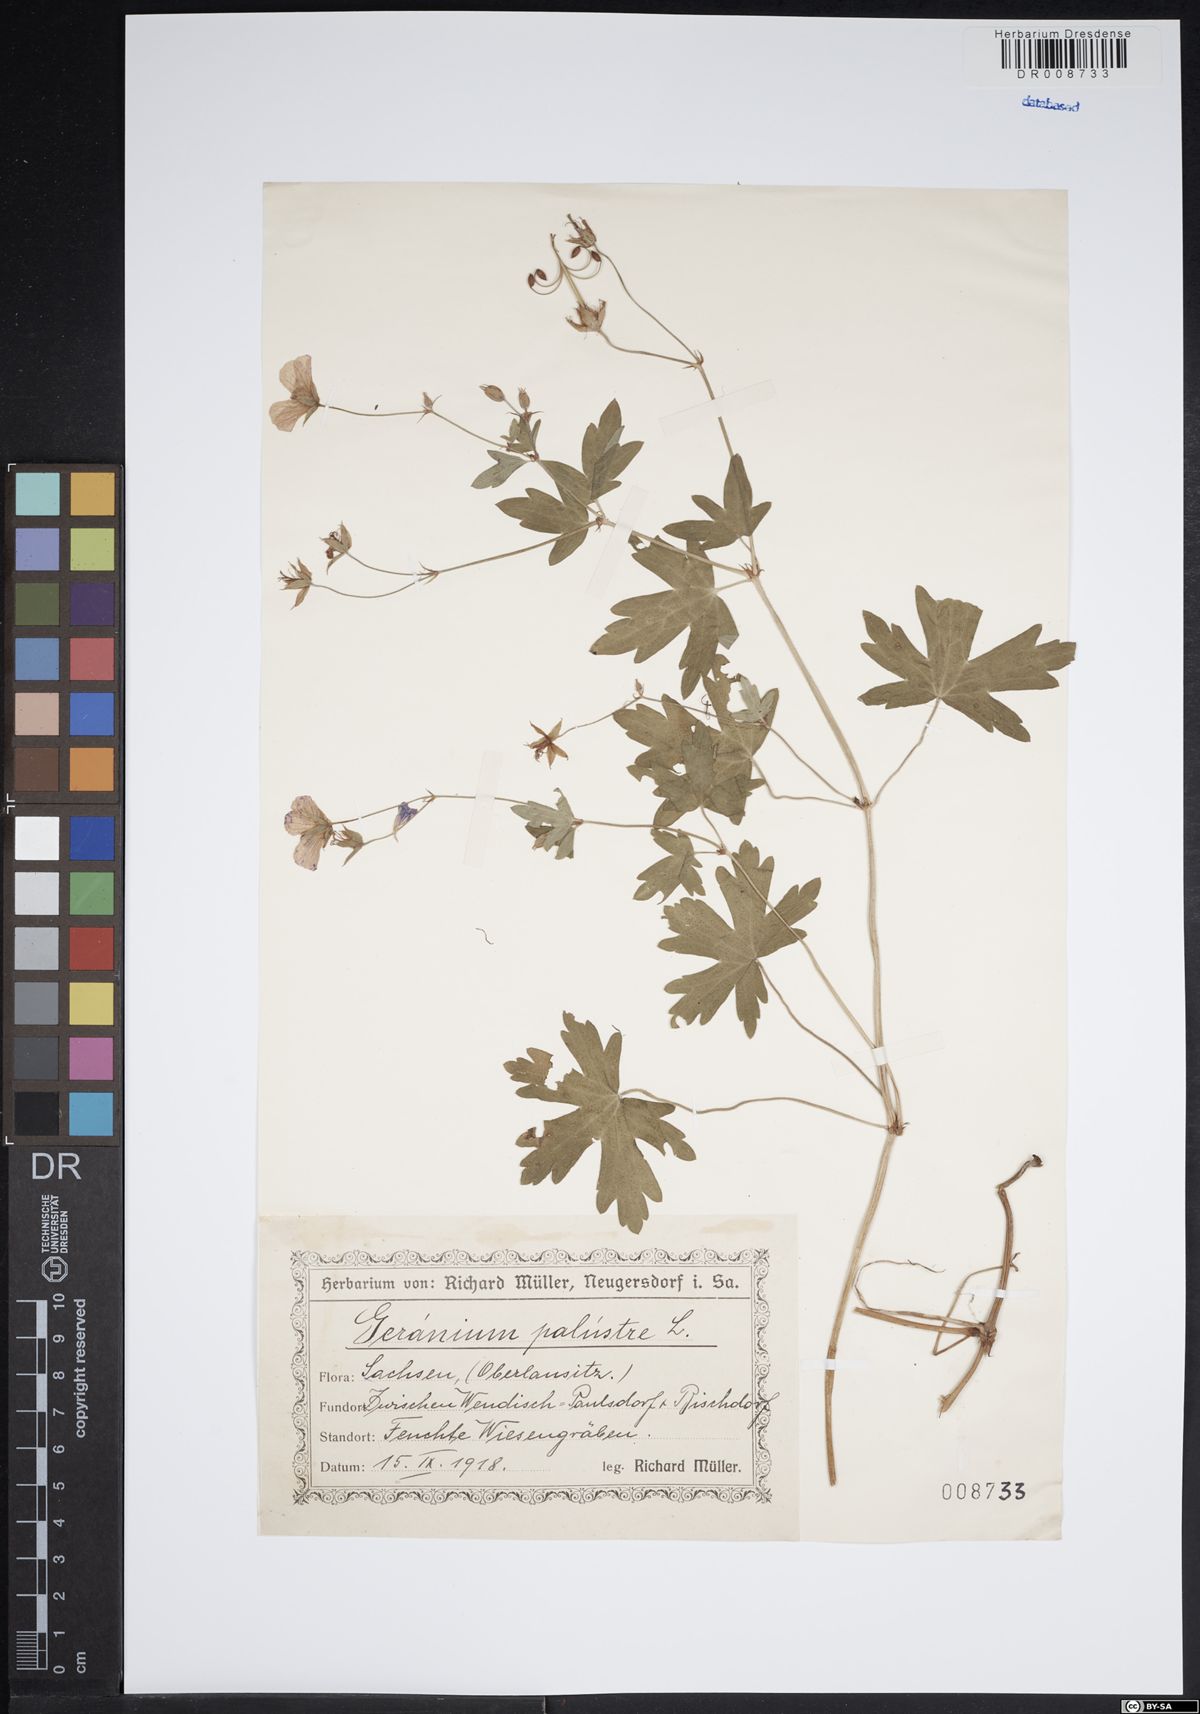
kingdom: Plantae
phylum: Tracheophyta
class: Magnoliopsida
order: Geraniales
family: Geraniaceae
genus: Geranium
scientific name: Geranium palustre
